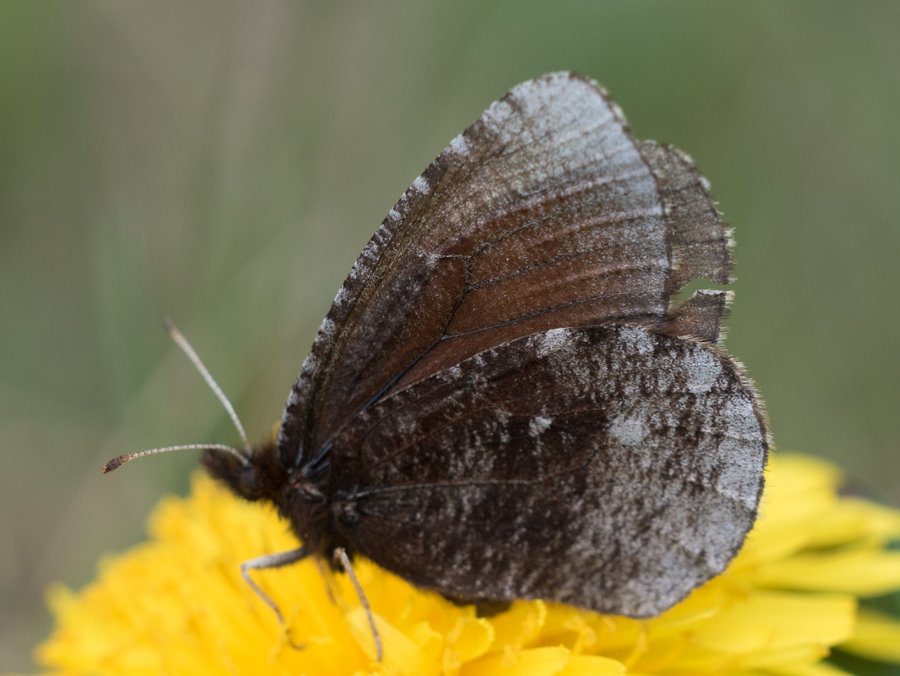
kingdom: Animalia
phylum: Arthropoda
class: Insecta
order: Lepidoptera
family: Nymphalidae
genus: Erebia
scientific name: Erebia discoidalis
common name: Red-disked Alpine
